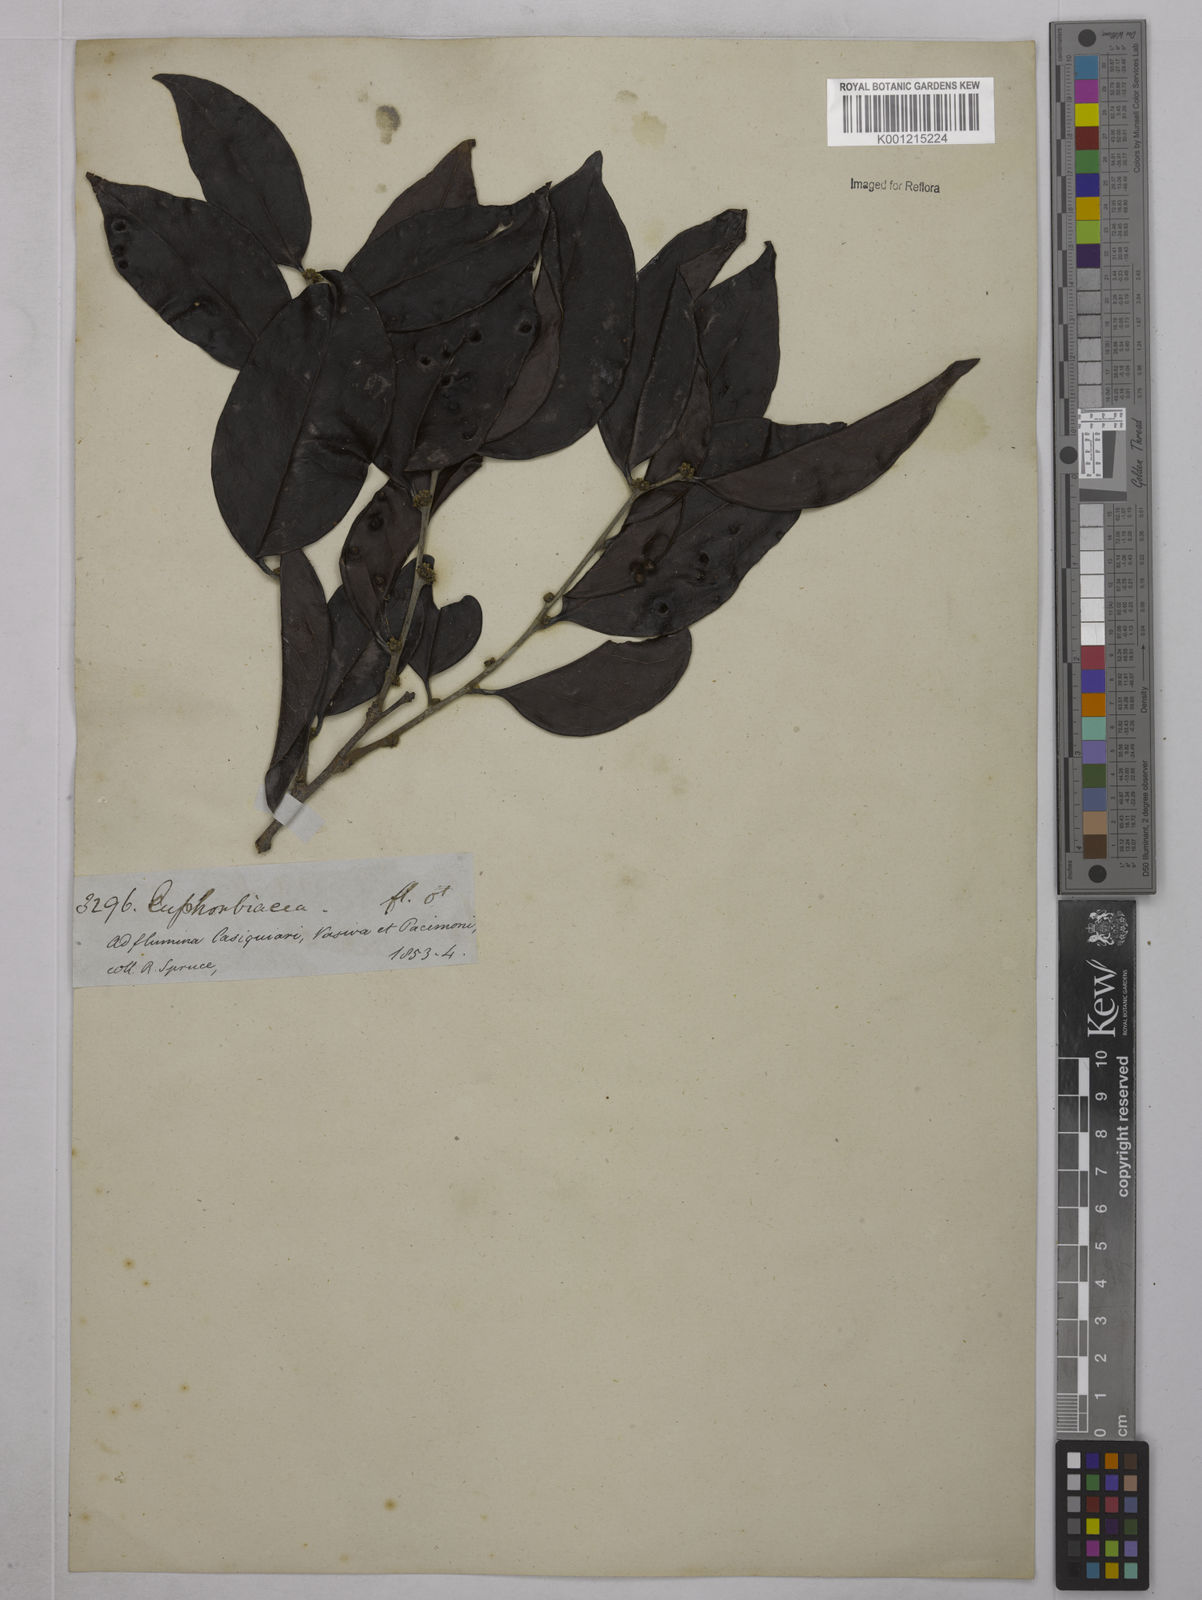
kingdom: Plantae
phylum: Tracheophyta
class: Magnoliopsida
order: Malpighiales
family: Euphorbiaceae
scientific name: Euphorbiaceae
